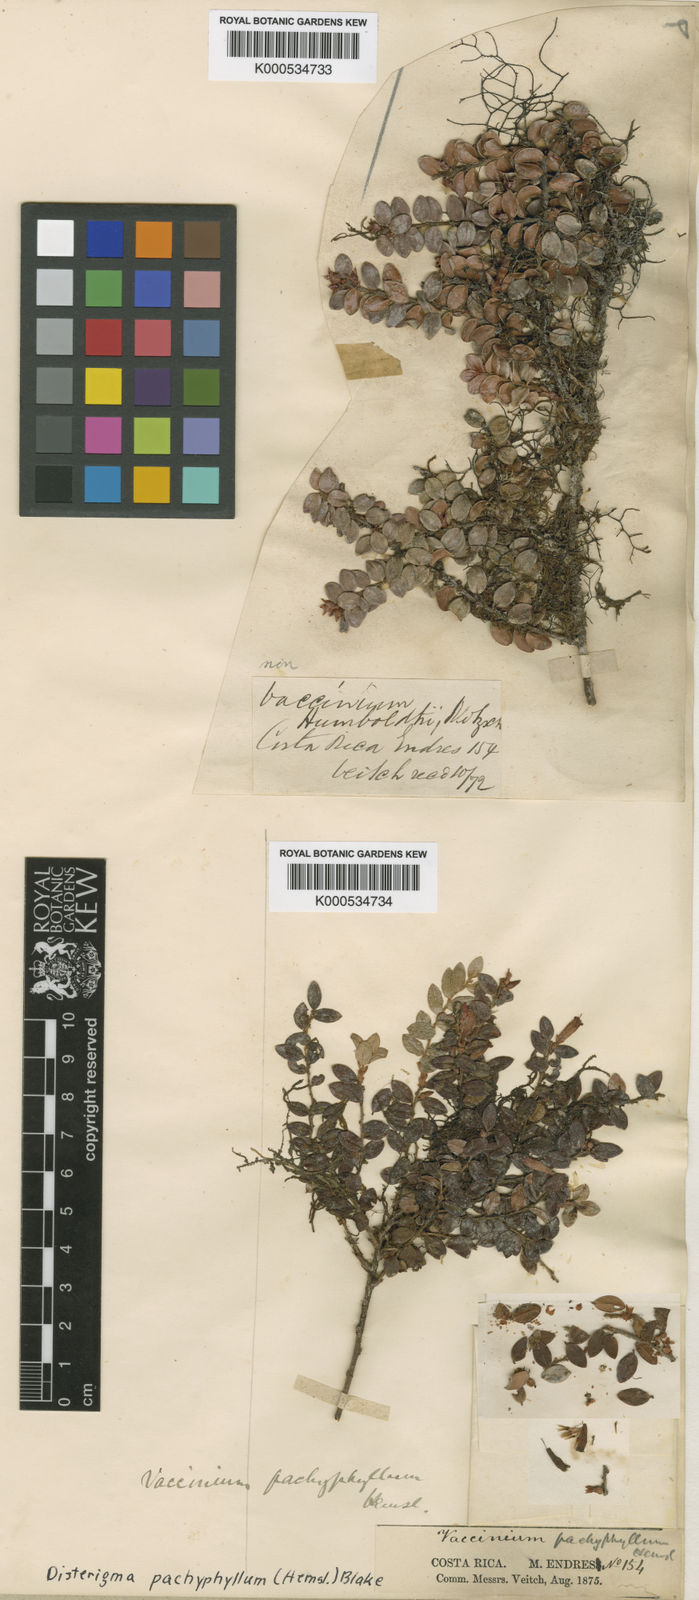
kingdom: Plantae
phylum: Tracheophyta
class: Magnoliopsida
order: Ericales
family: Ericaceae
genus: Disterigma
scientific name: Disterigma humboldtii
